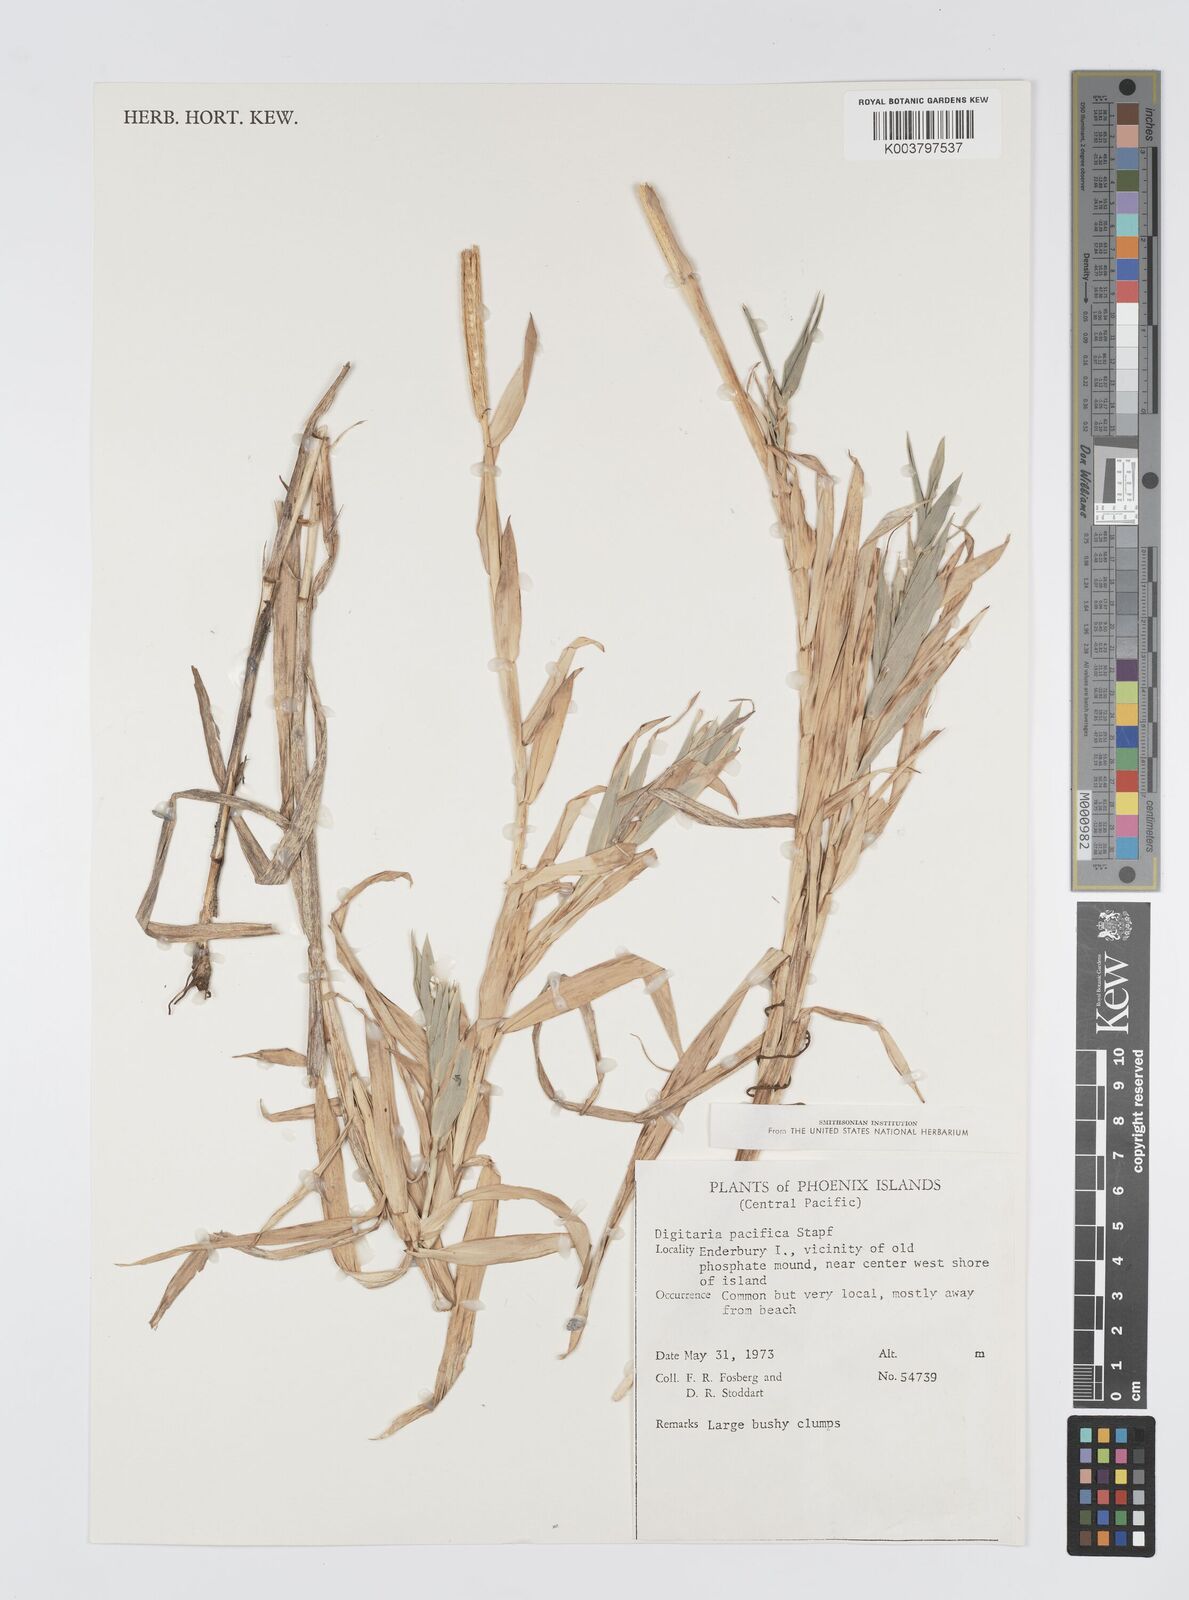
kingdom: Plantae
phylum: Tracheophyta
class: Liliopsida
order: Poales
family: Poaceae
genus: Digitaria
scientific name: Digitaria stenotaphrodes
